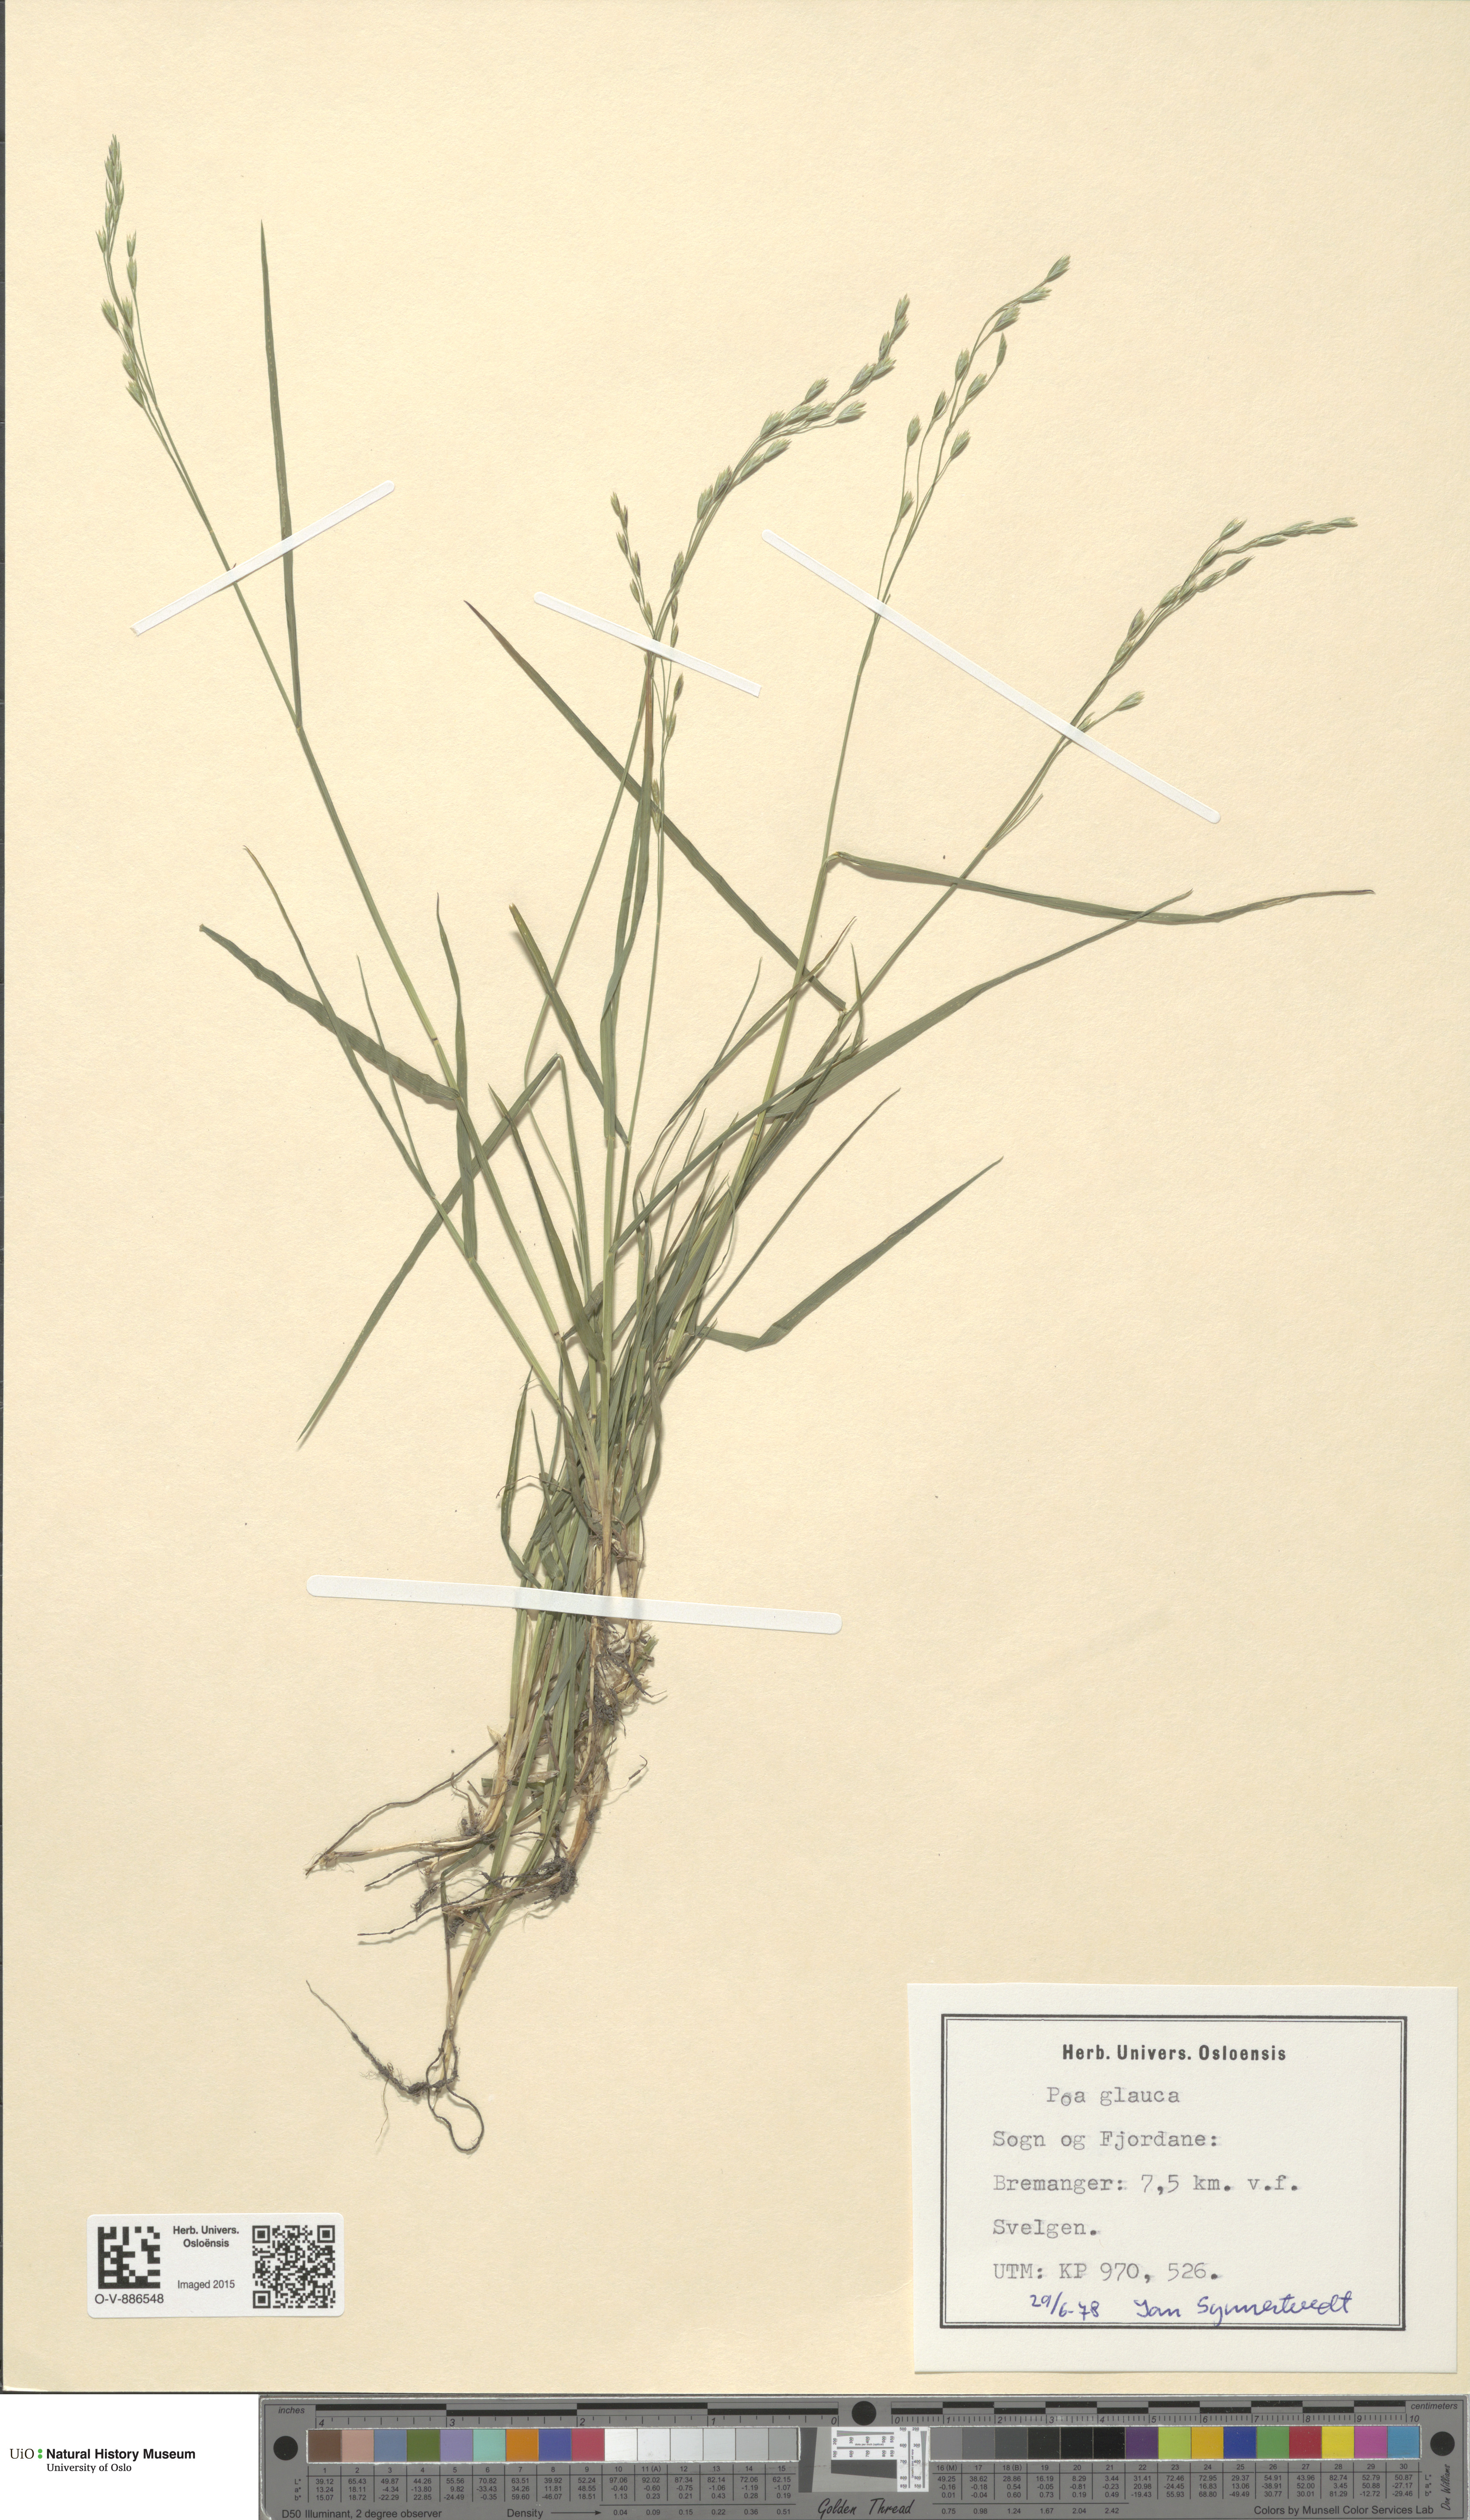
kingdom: Plantae
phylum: Tracheophyta
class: Liliopsida
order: Poales
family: Poaceae
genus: Poa
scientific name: Poa glauca
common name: Glaucous bluegrass
